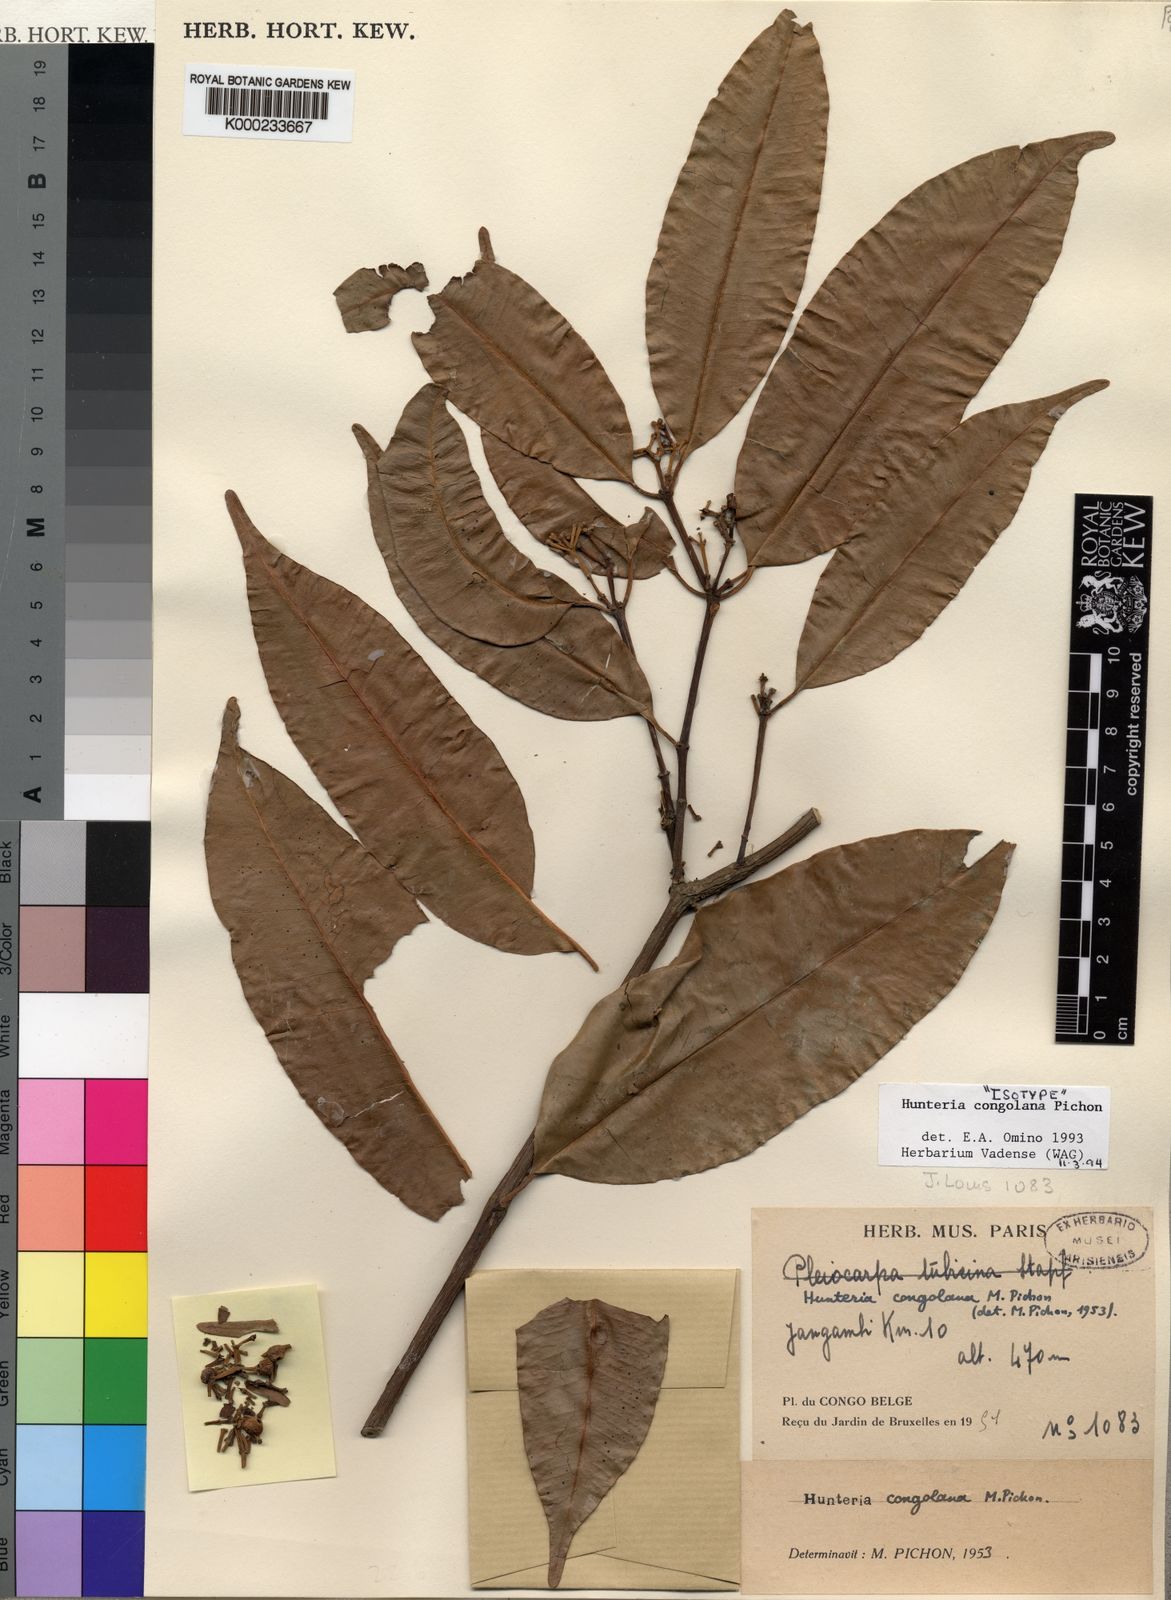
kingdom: Plantae
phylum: Tracheophyta
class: Magnoliopsida
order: Gentianales
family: Apocynaceae
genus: Hunteria
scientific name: Hunteria congolana
